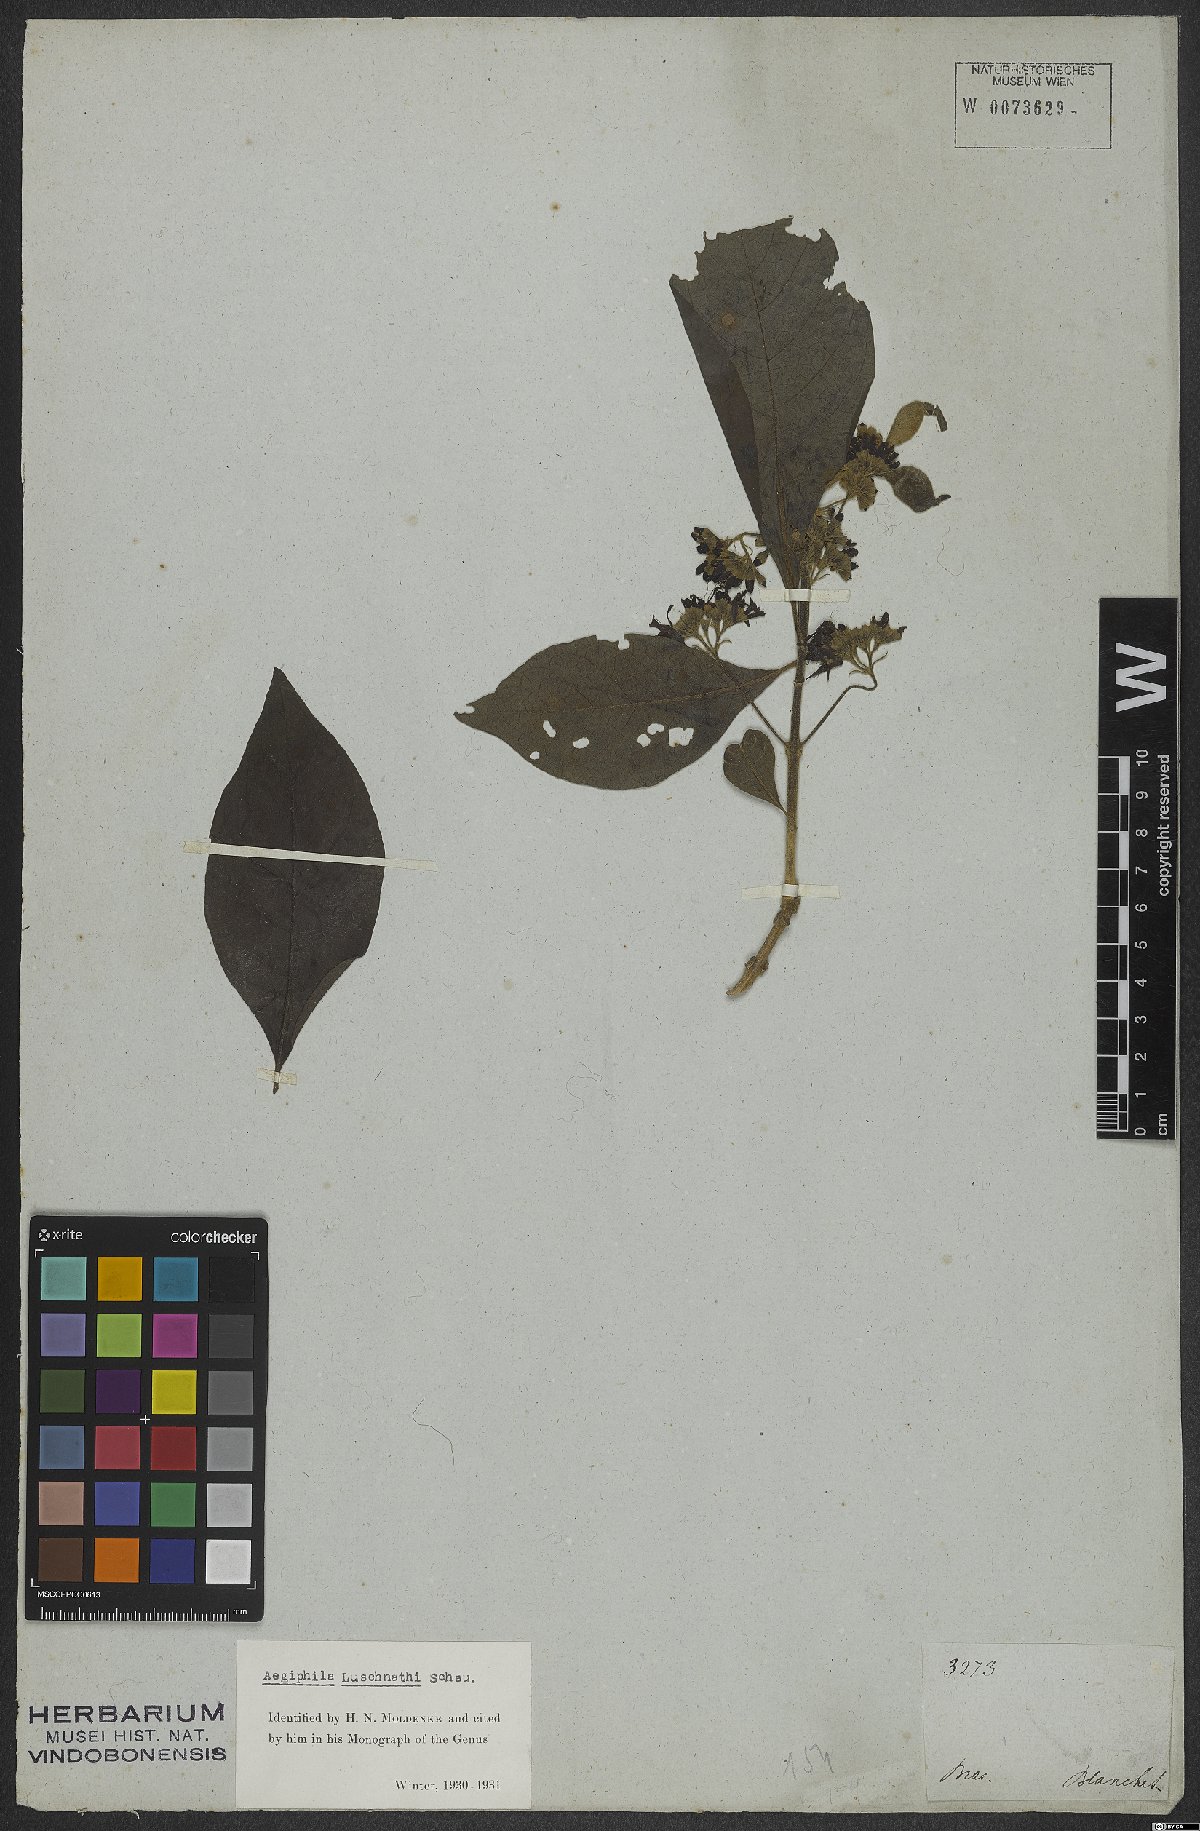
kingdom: Plantae
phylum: Tracheophyta
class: Magnoliopsida
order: Lamiales
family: Lamiaceae
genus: Aegiphila
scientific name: Aegiphila luschnathii
